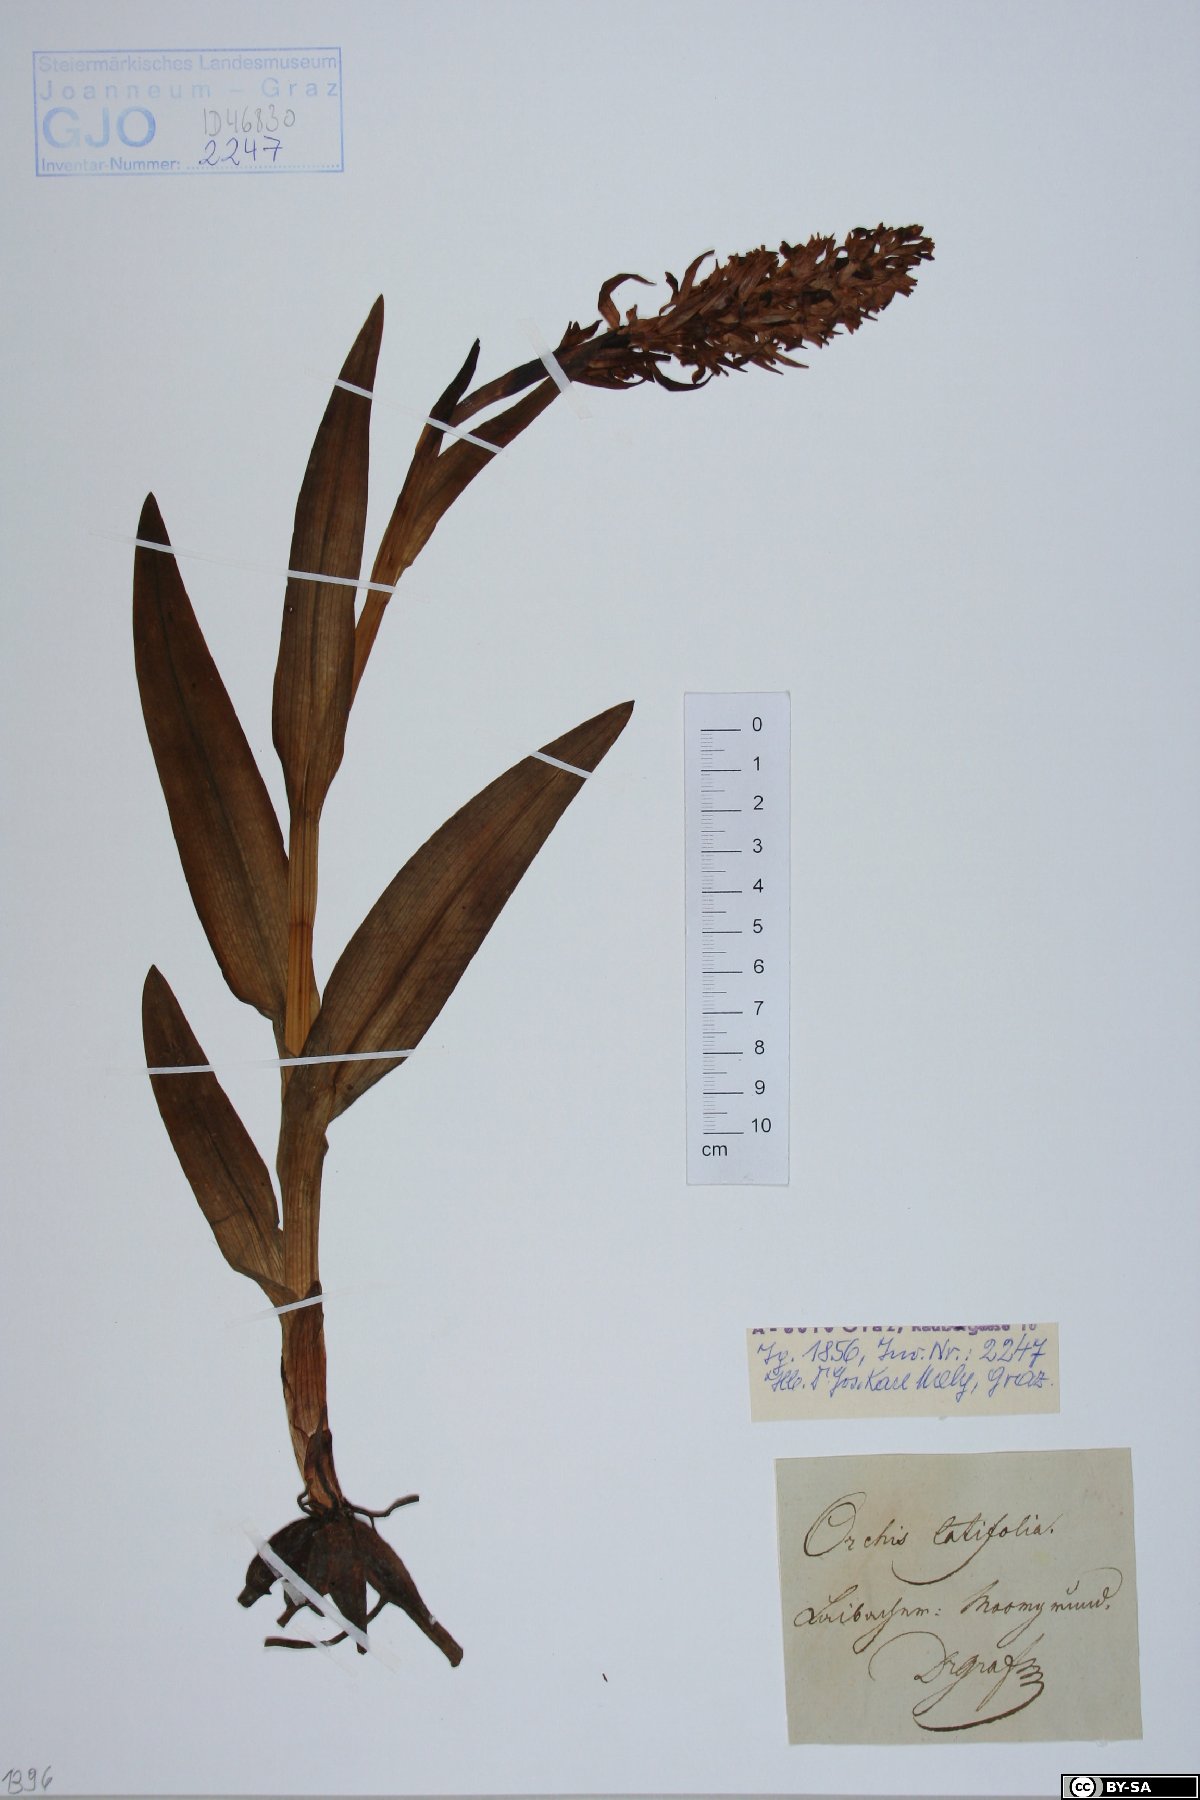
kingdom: Plantae
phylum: Tracheophyta
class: Liliopsida
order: Asparagales
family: Orchidaceae
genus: Dactylorhiza
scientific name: Dactylorhiza incarnata
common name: Early marsh-orchid
